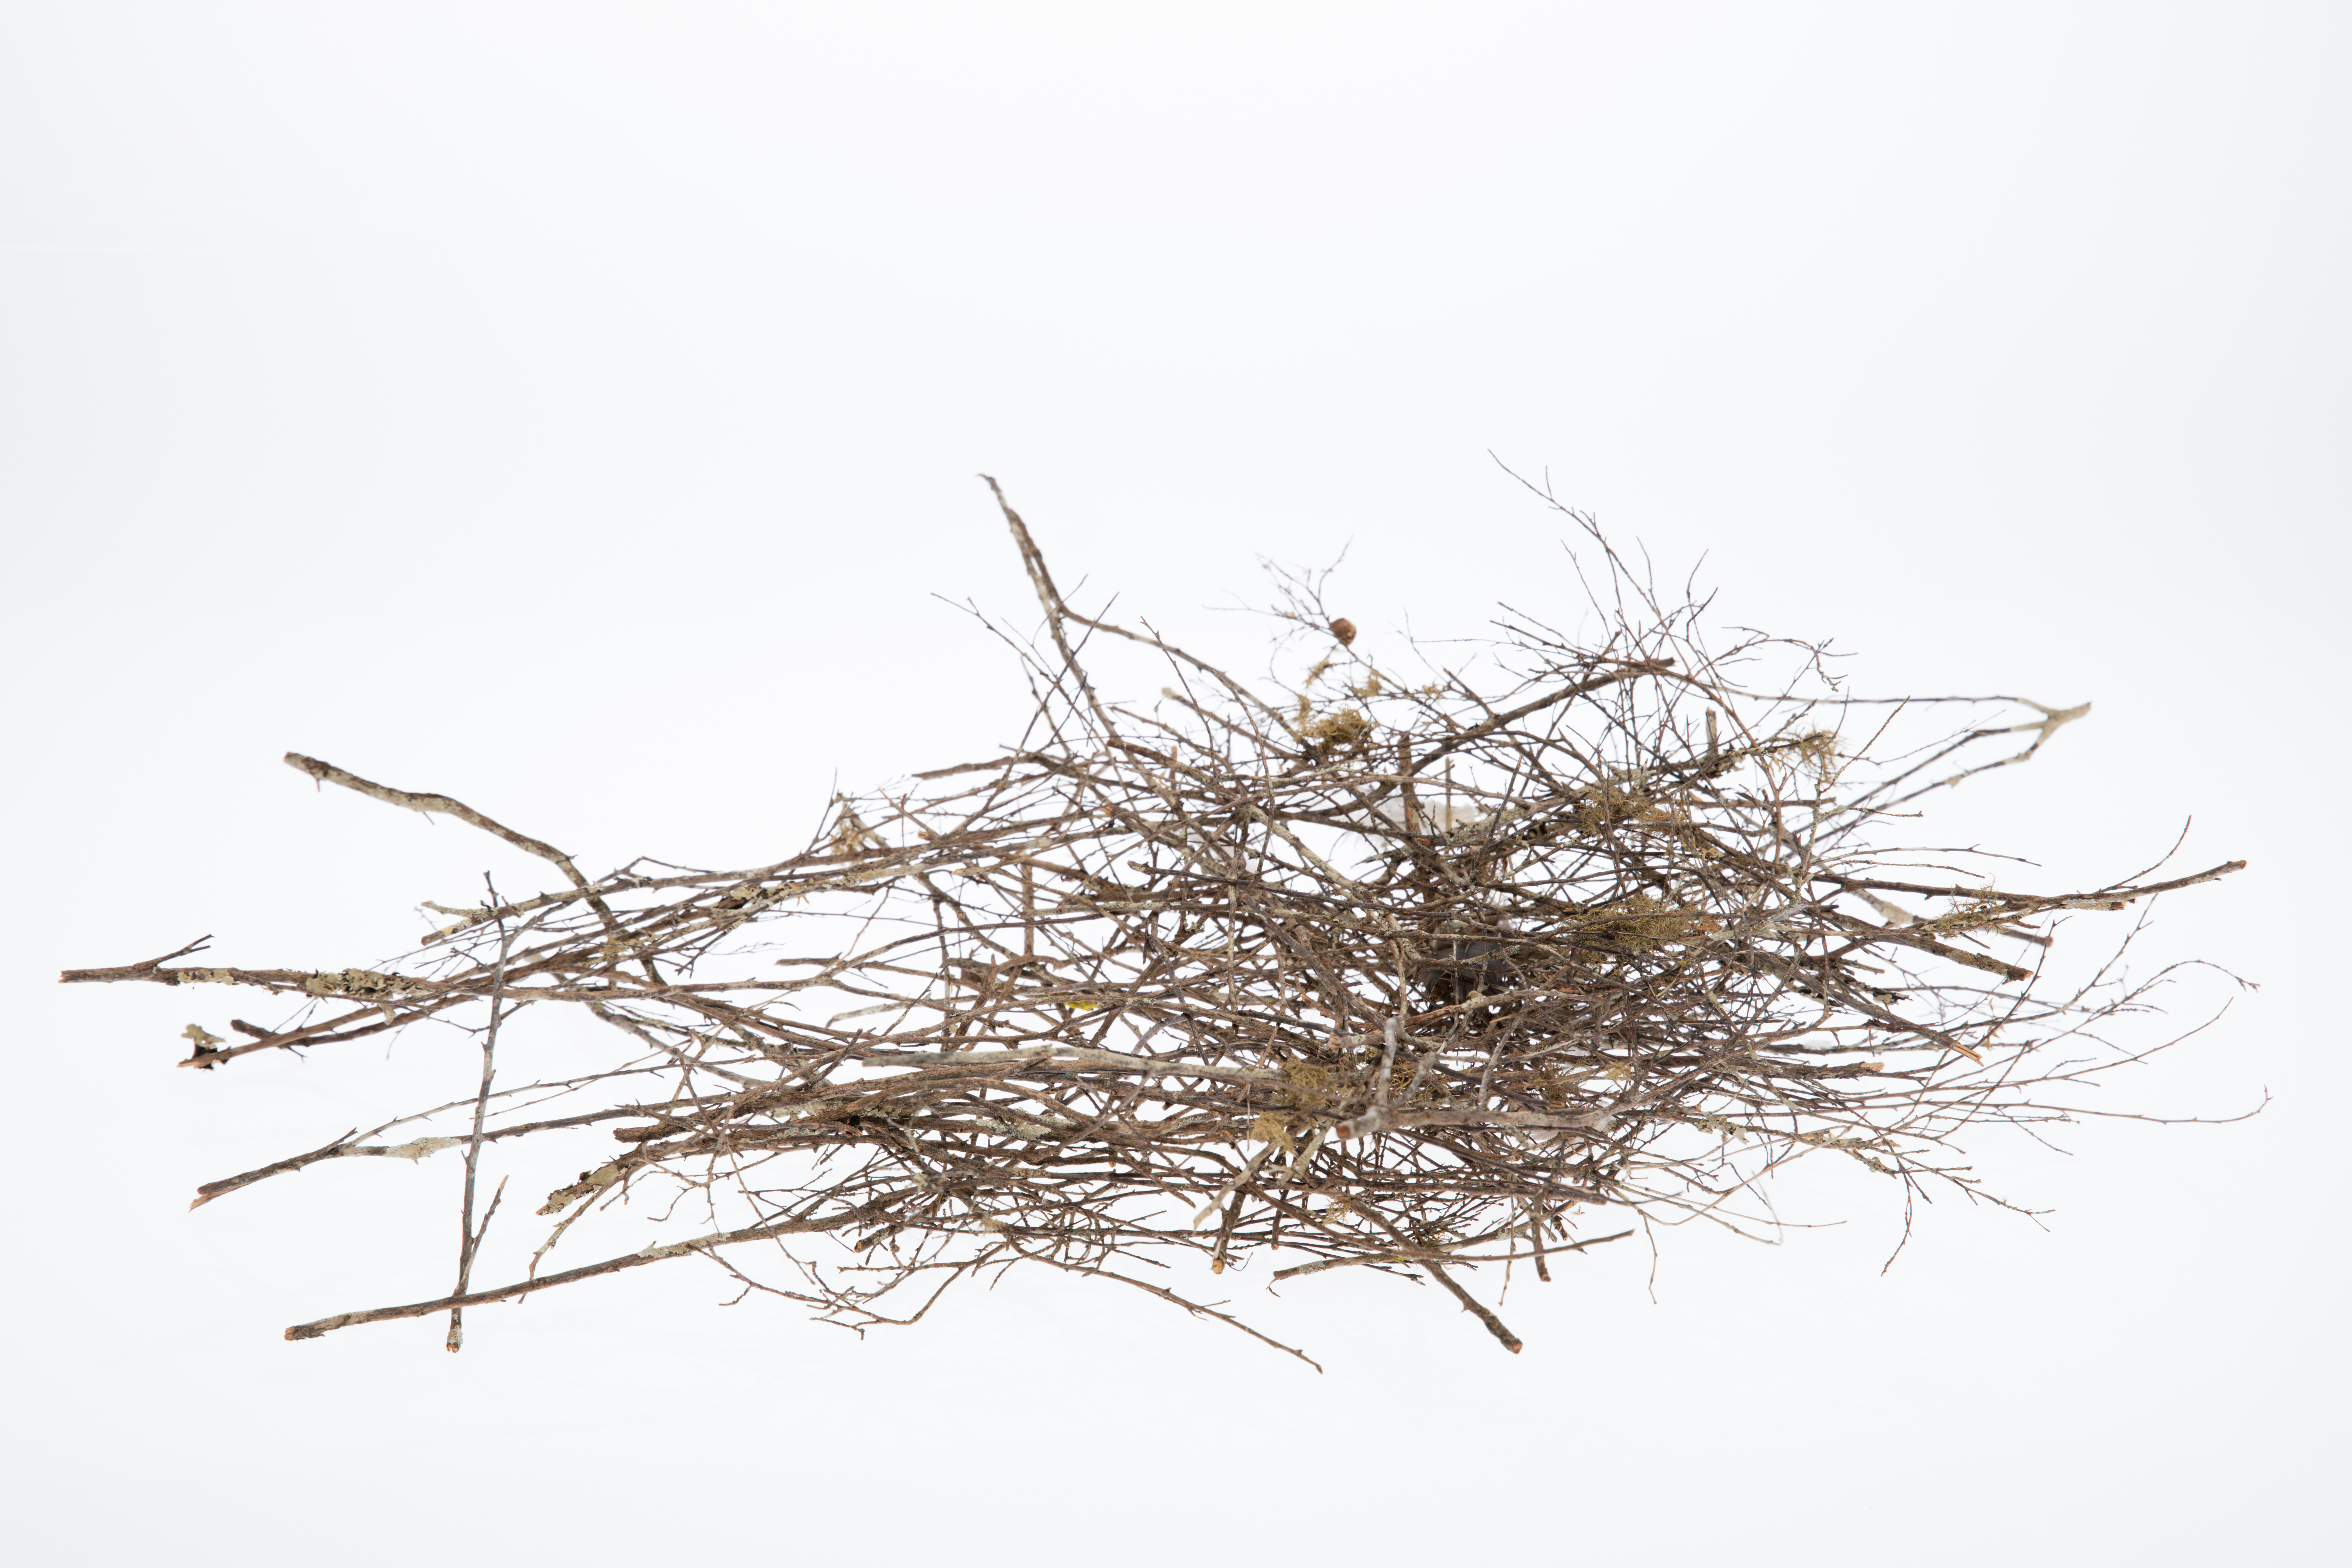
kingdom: Animalia
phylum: Chordata
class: Aves
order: Columbiformes
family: Columbidae
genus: Hemiphaga
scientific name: Hemiphaga novaeseelandiae
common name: New zealand pigeon
